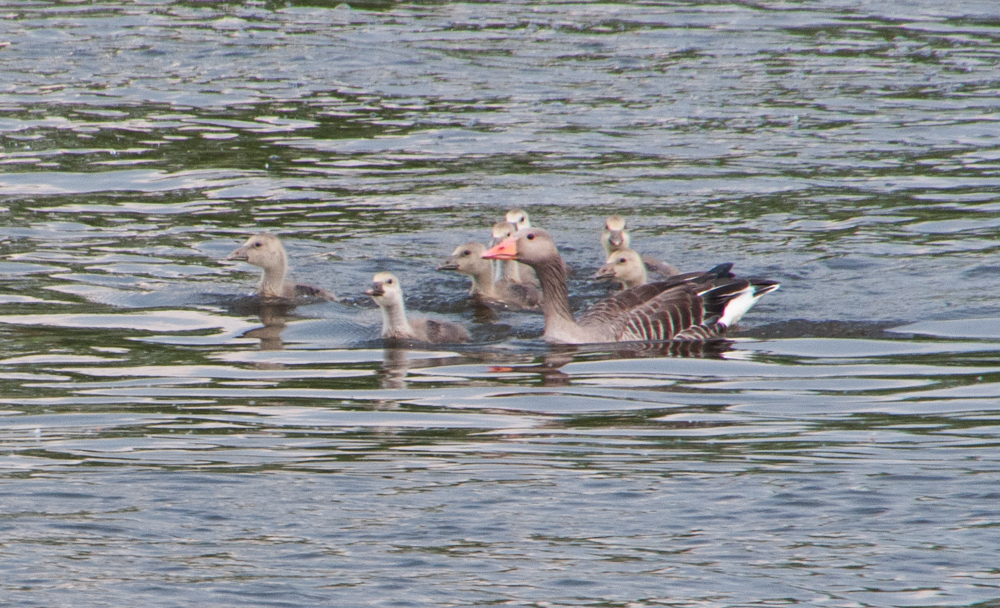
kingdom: Animalia
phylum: Chordata
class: Aves
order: Anseriformes
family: Anatidae
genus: Anser
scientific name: Anser anser
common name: Greylag goose
